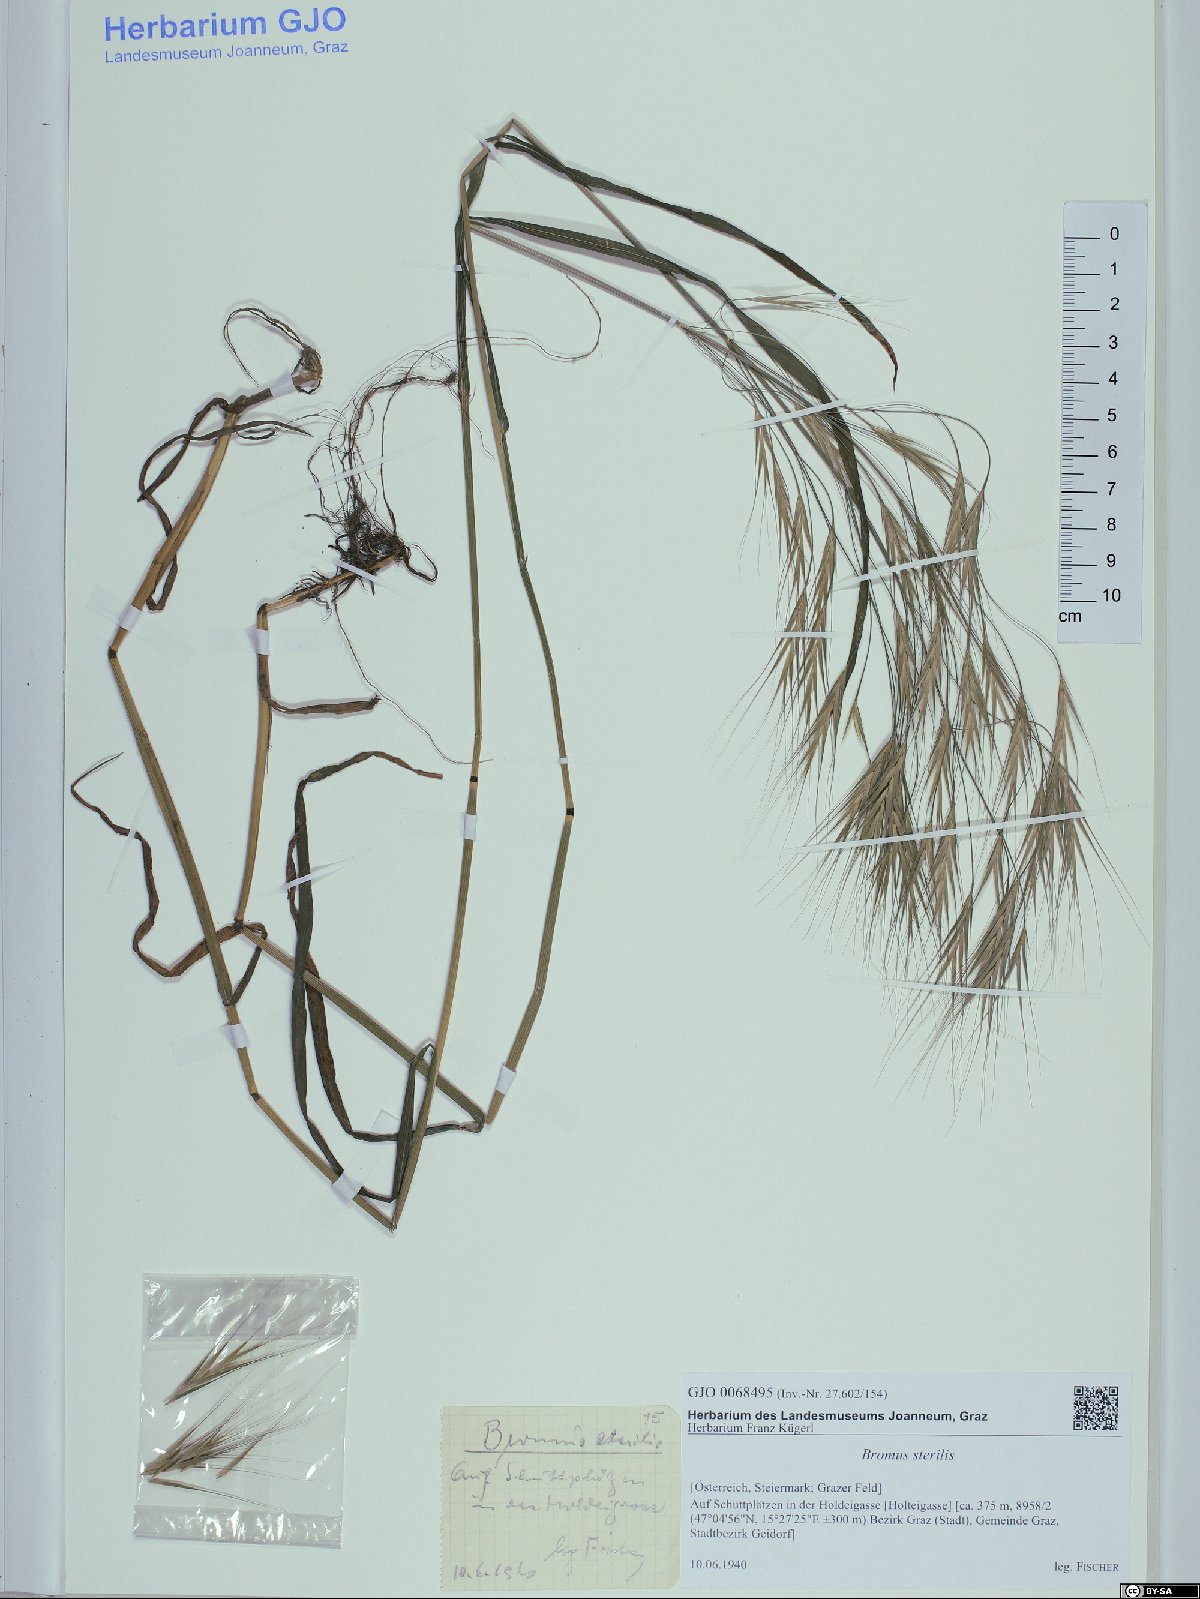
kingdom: Plantae
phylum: Tracheophyta
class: Liliopsida
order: Poales
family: Poaceae
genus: Bromus
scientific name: Bromus sterilis
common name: Poverty brome
